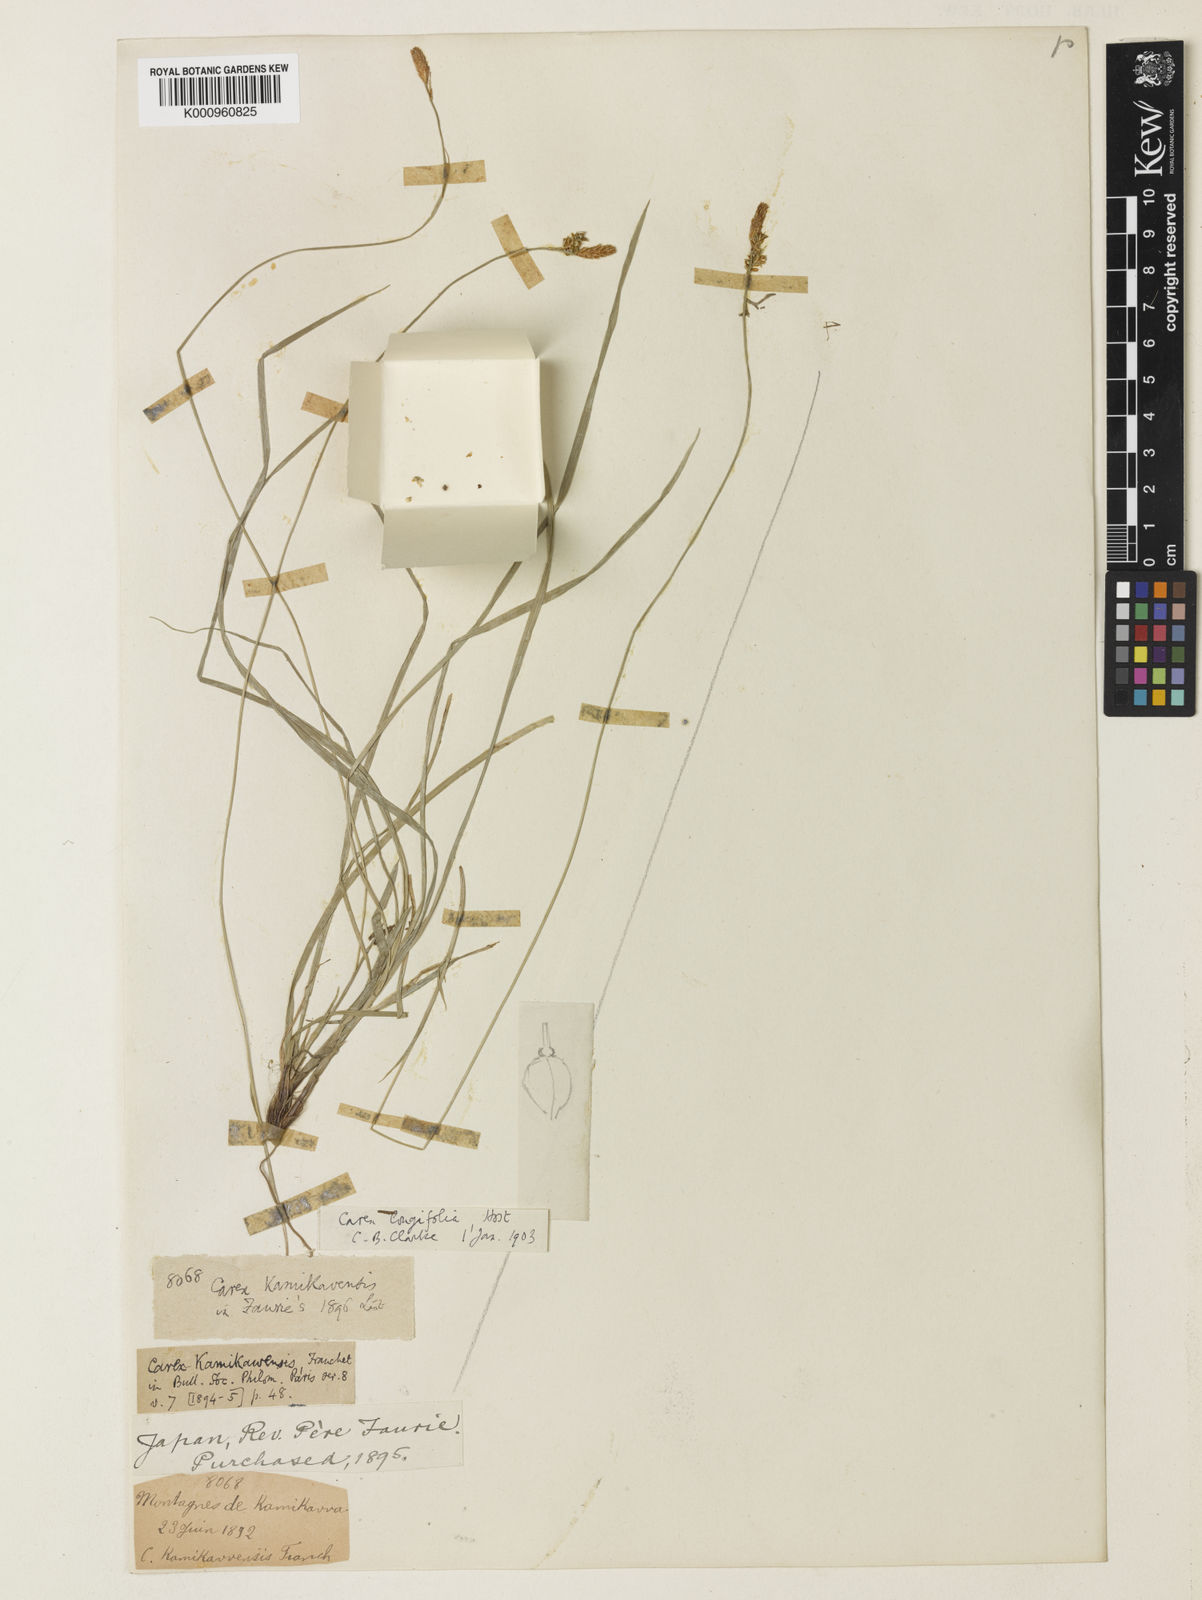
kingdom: Plantae
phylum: Tracheophyta
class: Liliopsida
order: Poales
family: Cyperaceae
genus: Carex
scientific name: Carex umbrosa
